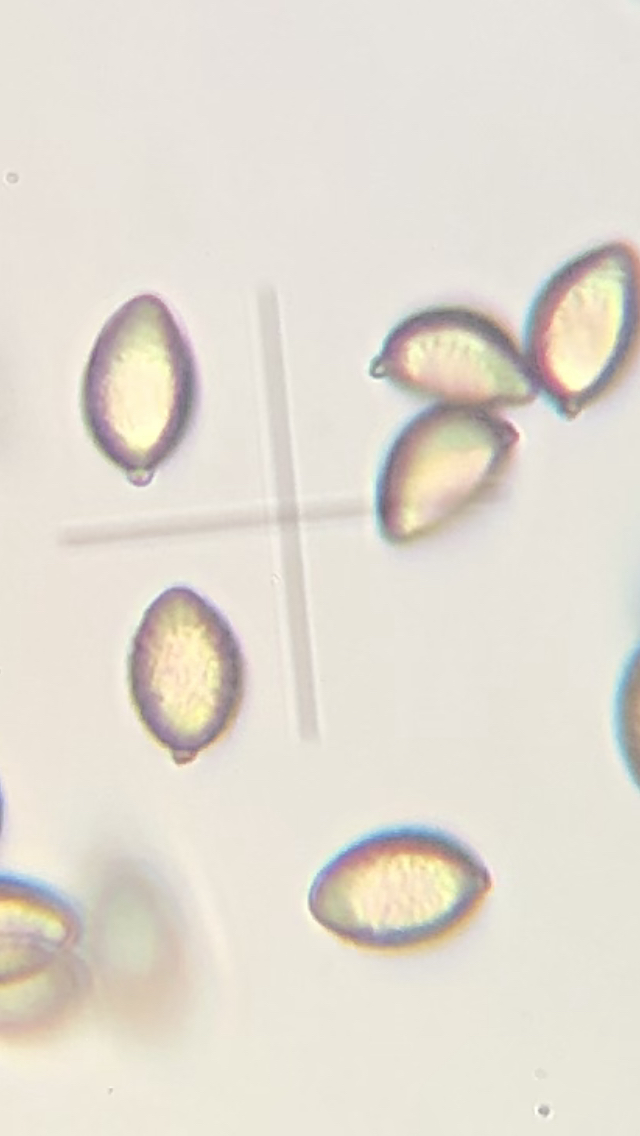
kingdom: Fungi
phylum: Basidiomycota
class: Agaricomycetes
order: Agaricales
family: Hymenogastraceae
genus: Hebeloma
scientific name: Hebeloma crustuliniforme
